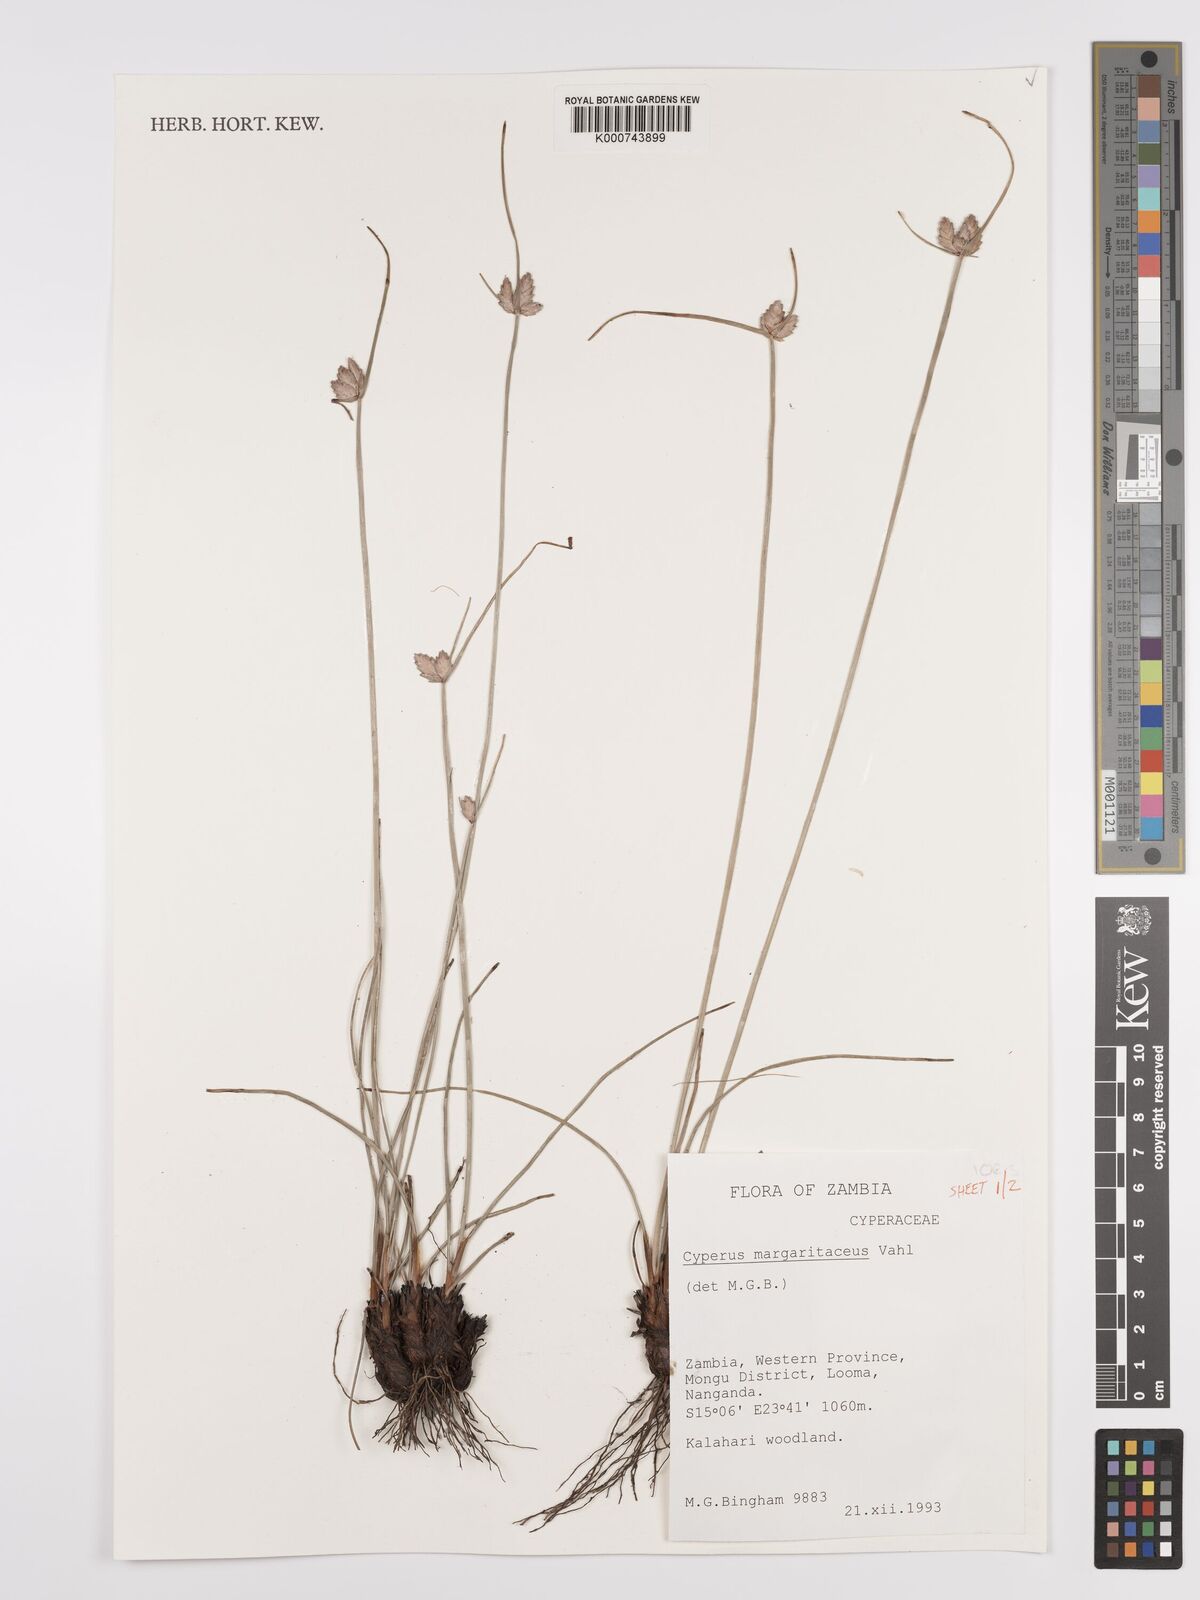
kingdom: Plantae
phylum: Tracheophyta
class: Liliopsida
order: Poales
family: Cyperaceae
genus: Cyperus
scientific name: Cyperus margaritaceus
